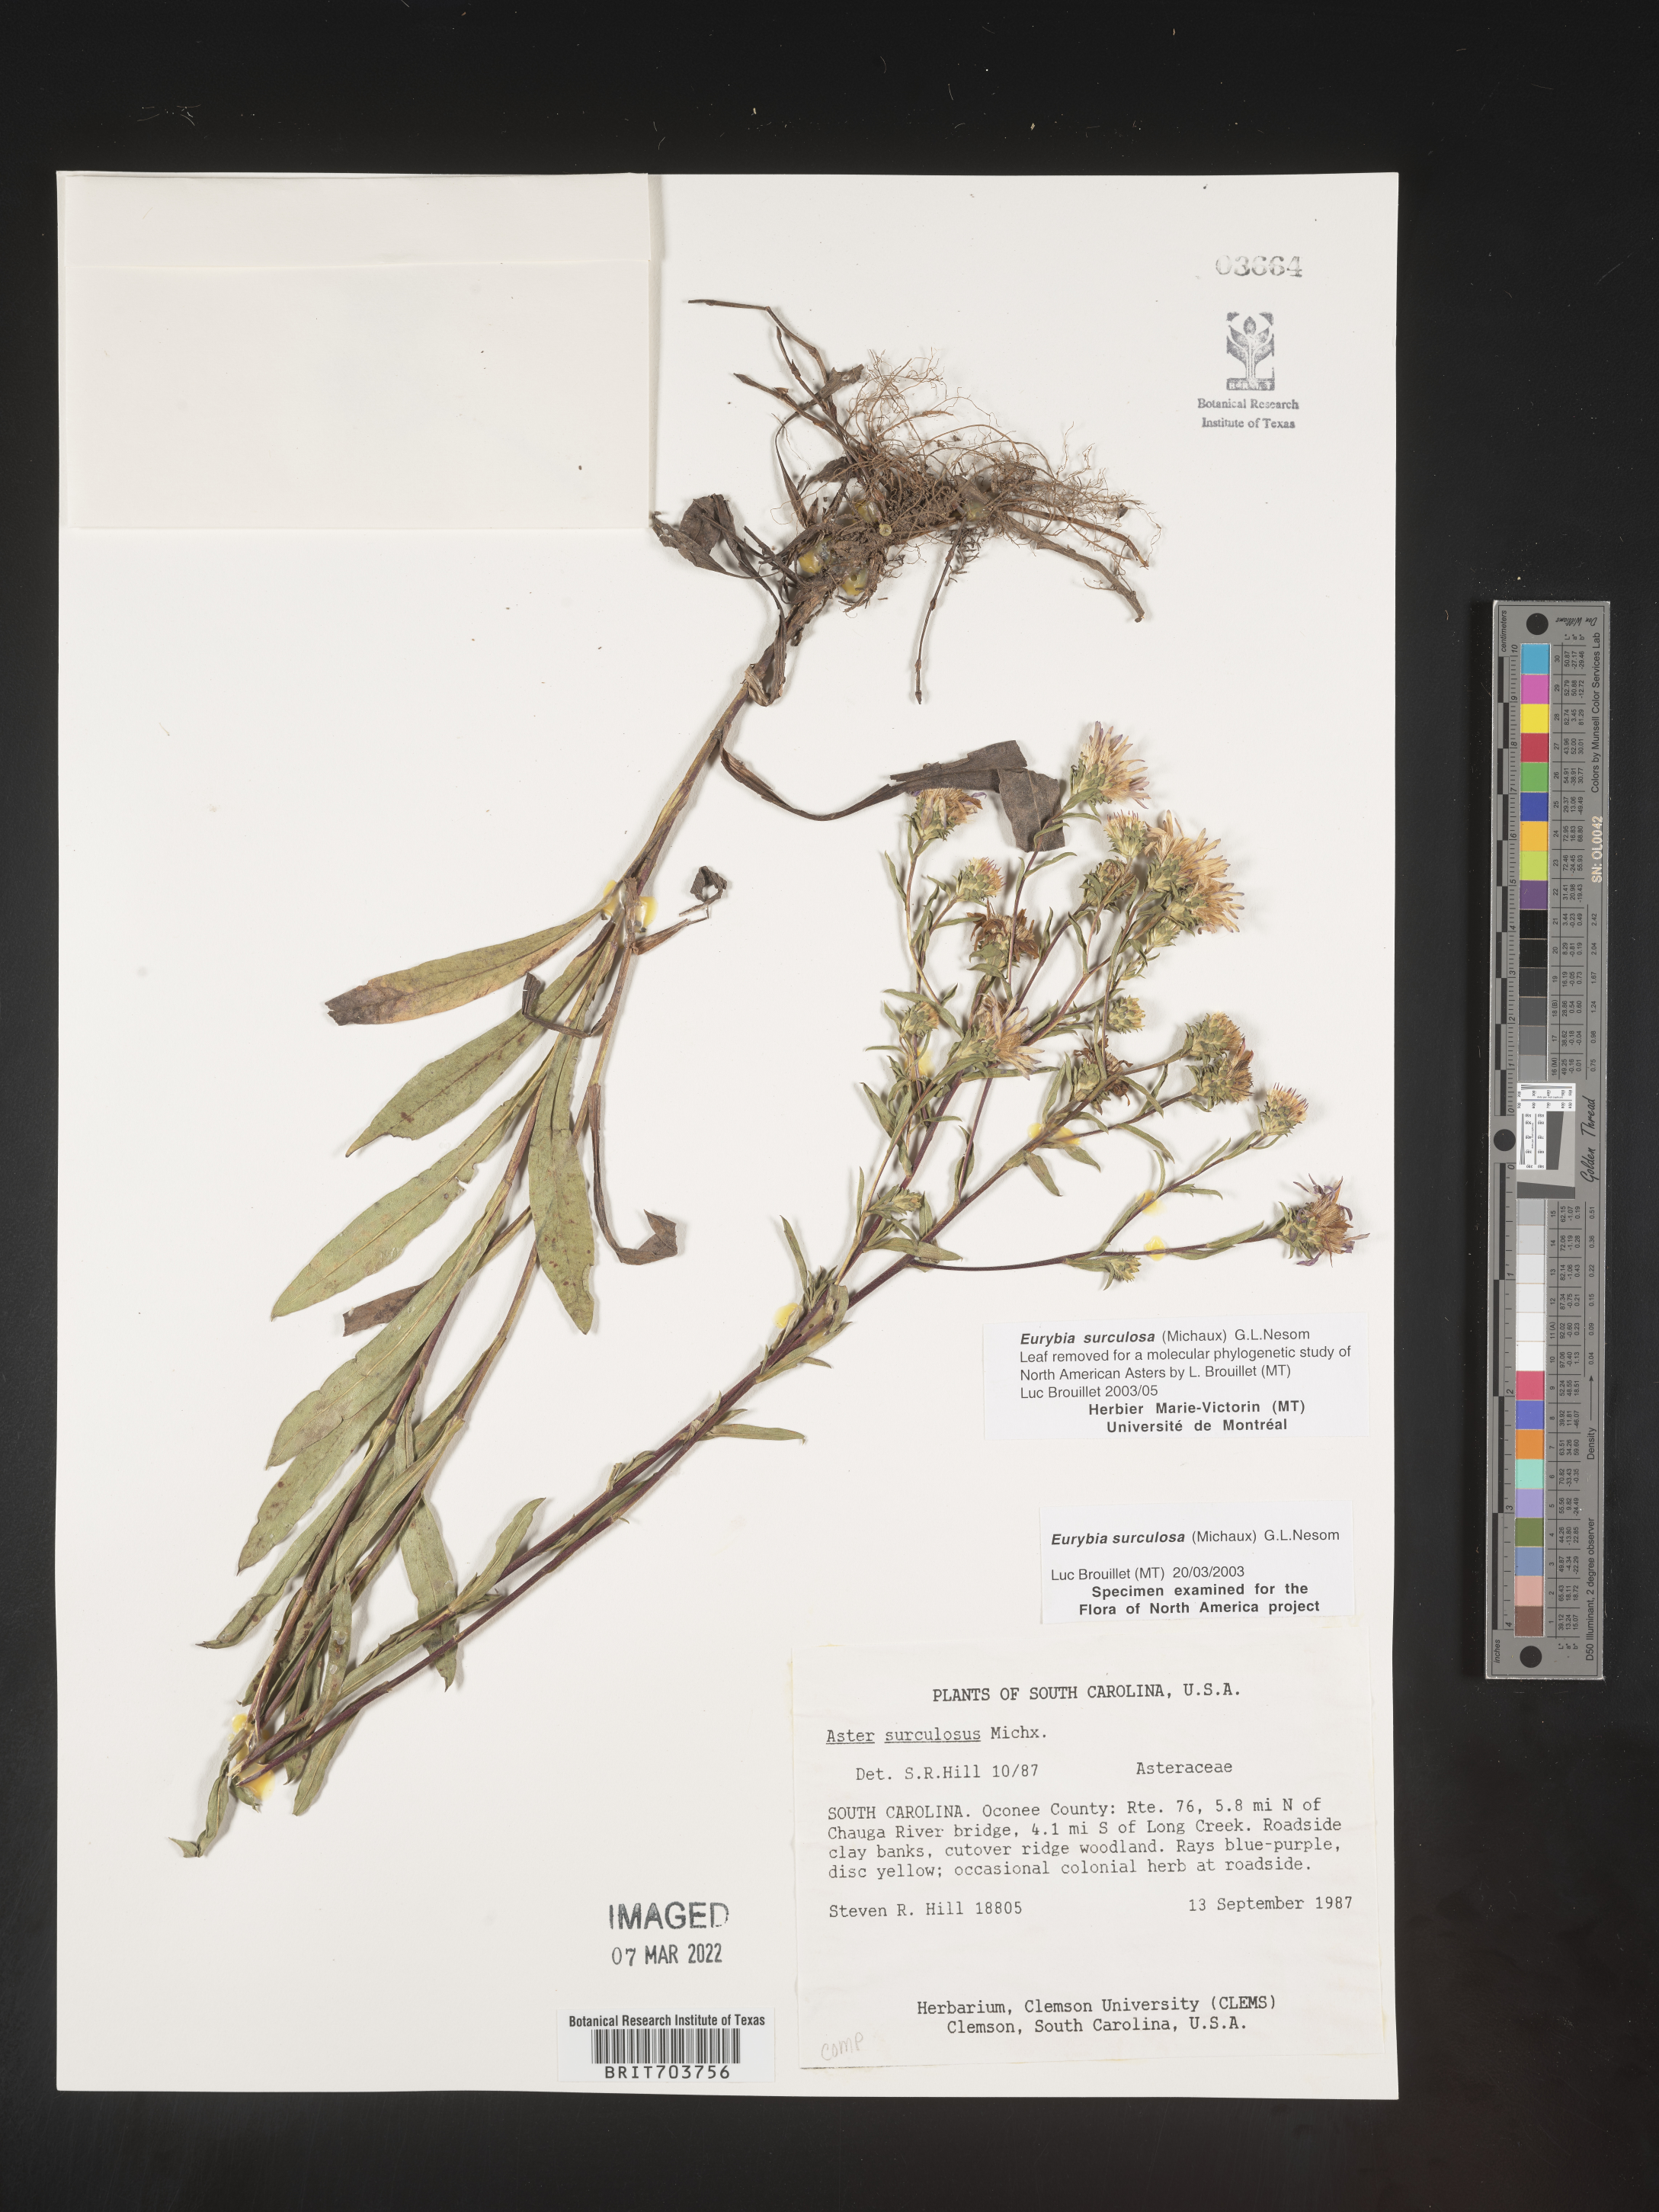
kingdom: Plantae
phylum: Tracheophyta
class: Magnoliopsida
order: Asterales
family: Asteraceae
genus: Eurybia
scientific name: Eurybia surculosa
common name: Creeping aster
